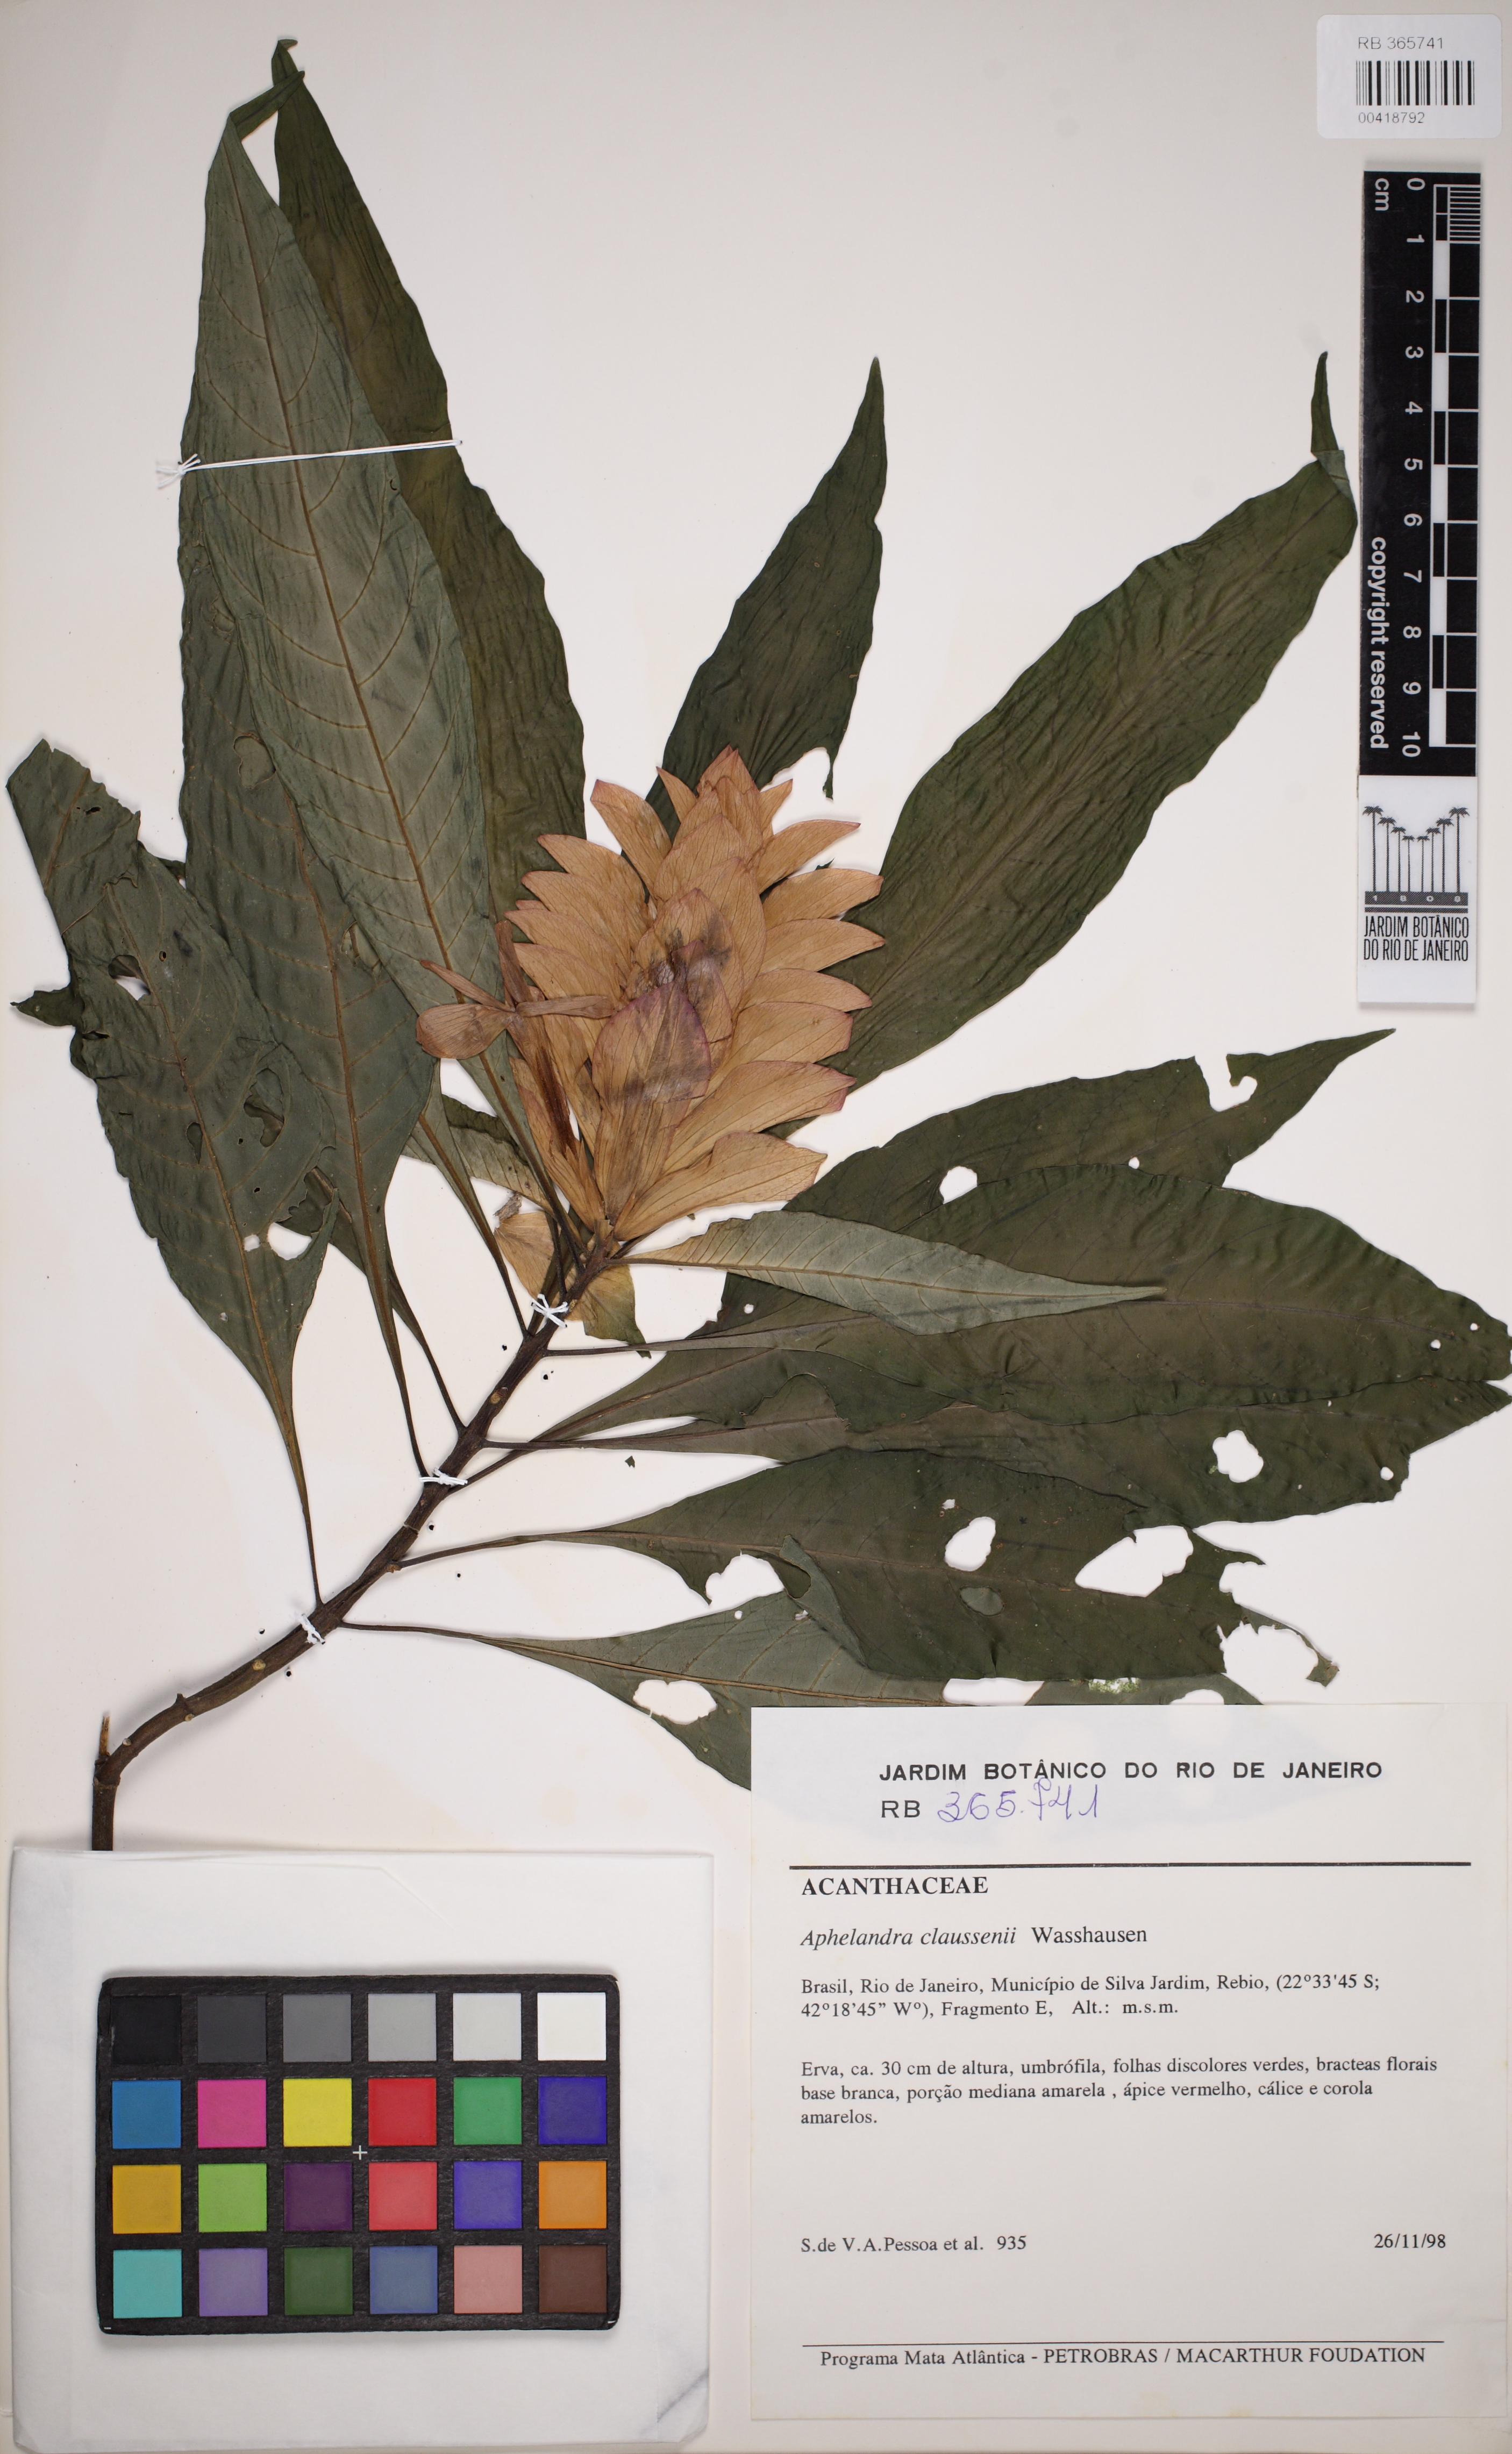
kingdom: Plantae
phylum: Tracheophyta
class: Magnoliopsida
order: Lamiales
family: Acanthaceae
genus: Aphelandra
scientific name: Aphelandra claussenii
